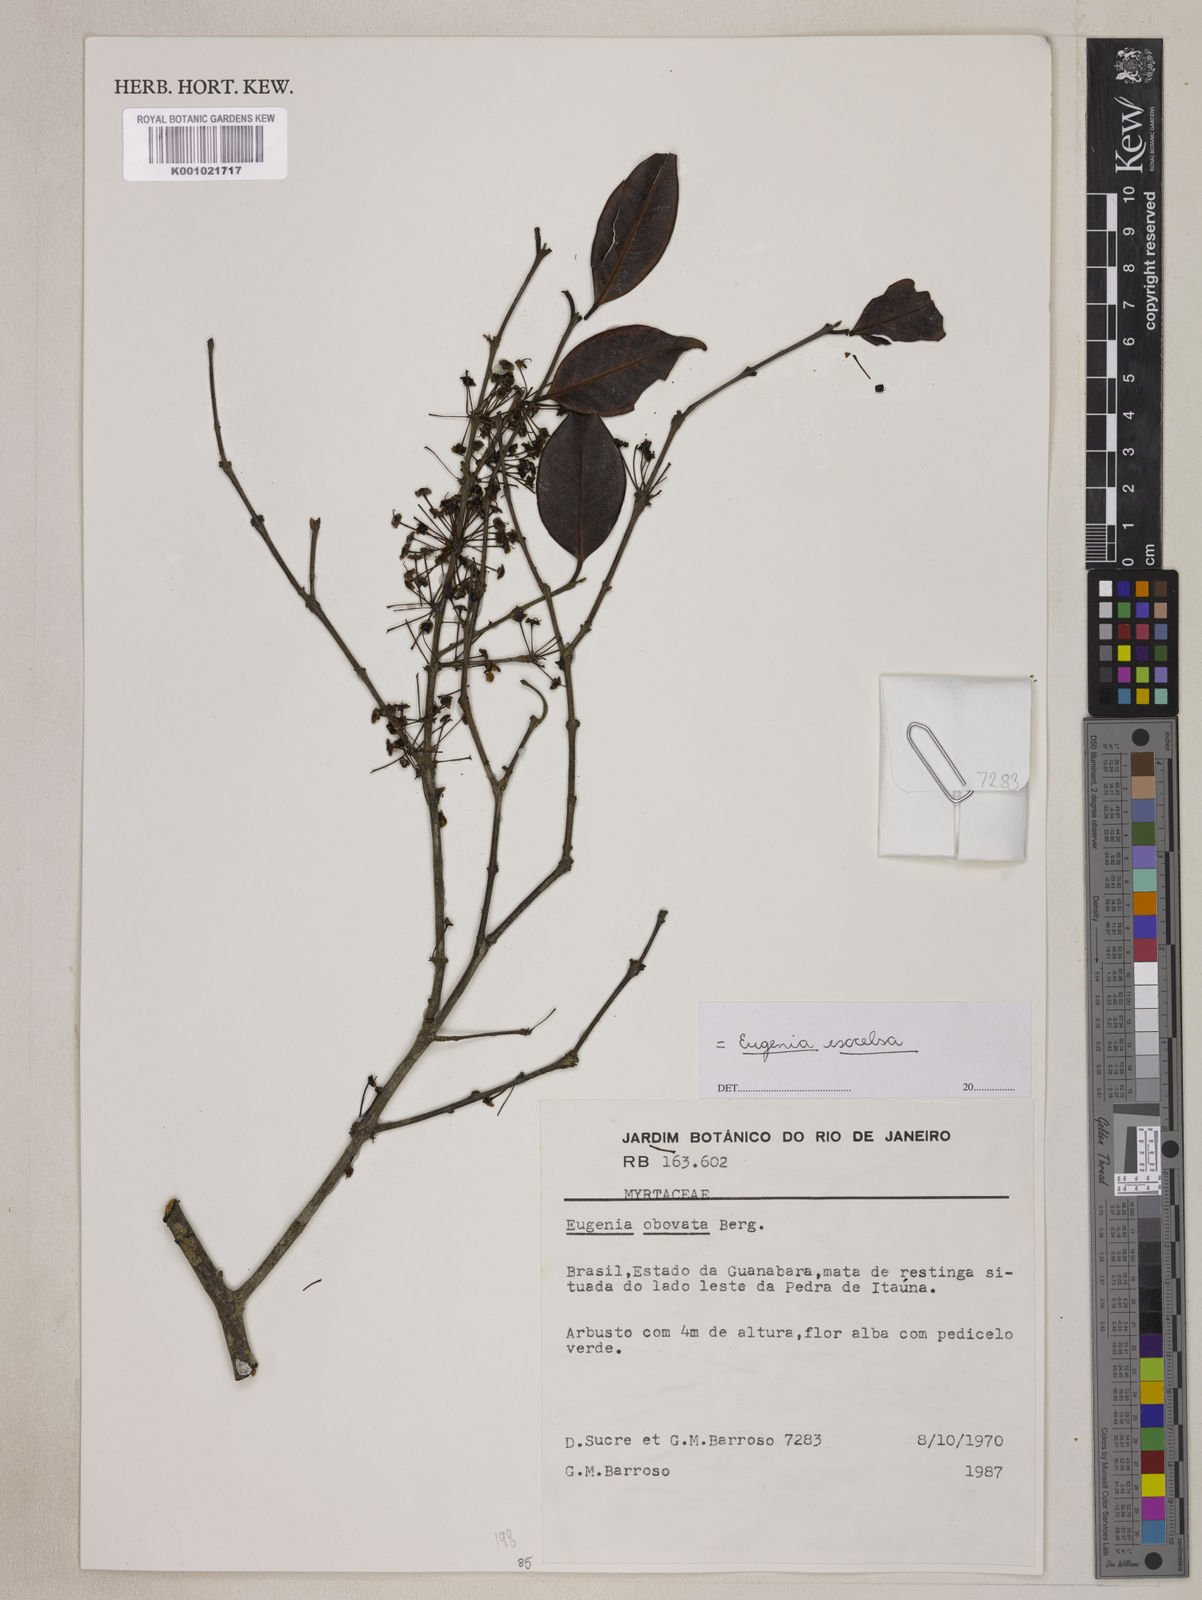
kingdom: Plantae
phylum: Tracheophyta
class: Magnoliopsida
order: Myrtales
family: Myrtaceae
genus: Eugenia
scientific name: Eugenia zuccarinii
